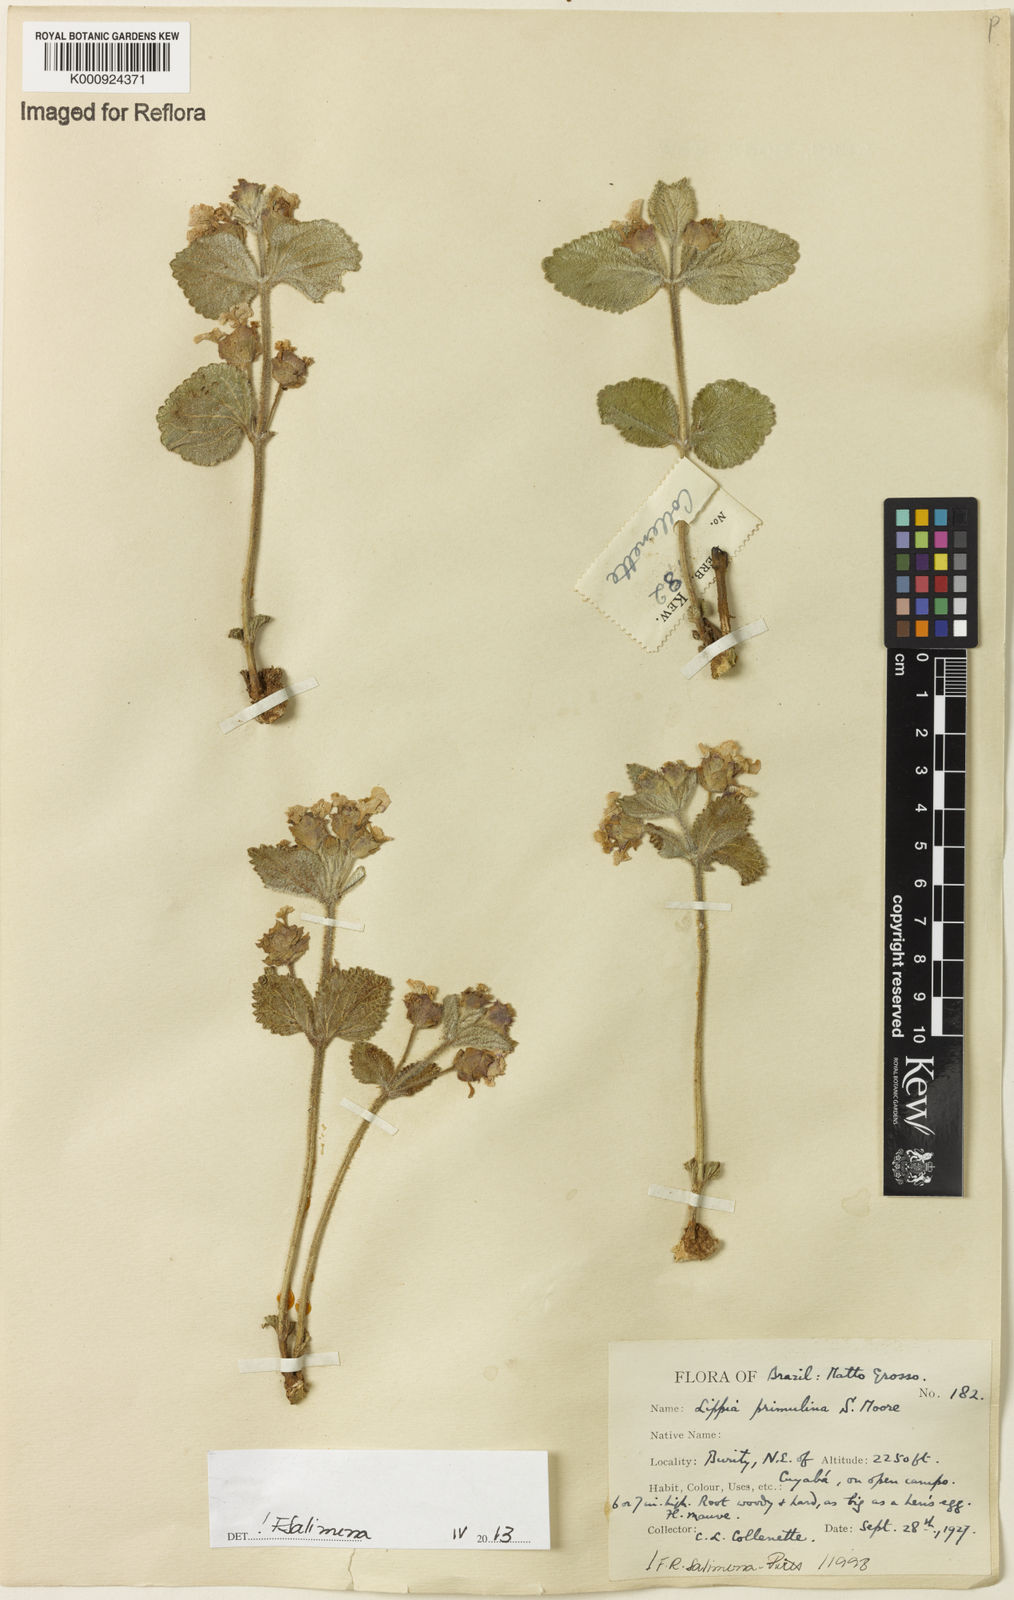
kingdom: Plantae
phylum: Tracheophyta
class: Magnoliopsida
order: Lamiales
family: Verbenaceae
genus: Lippia
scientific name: Lippia primulina
